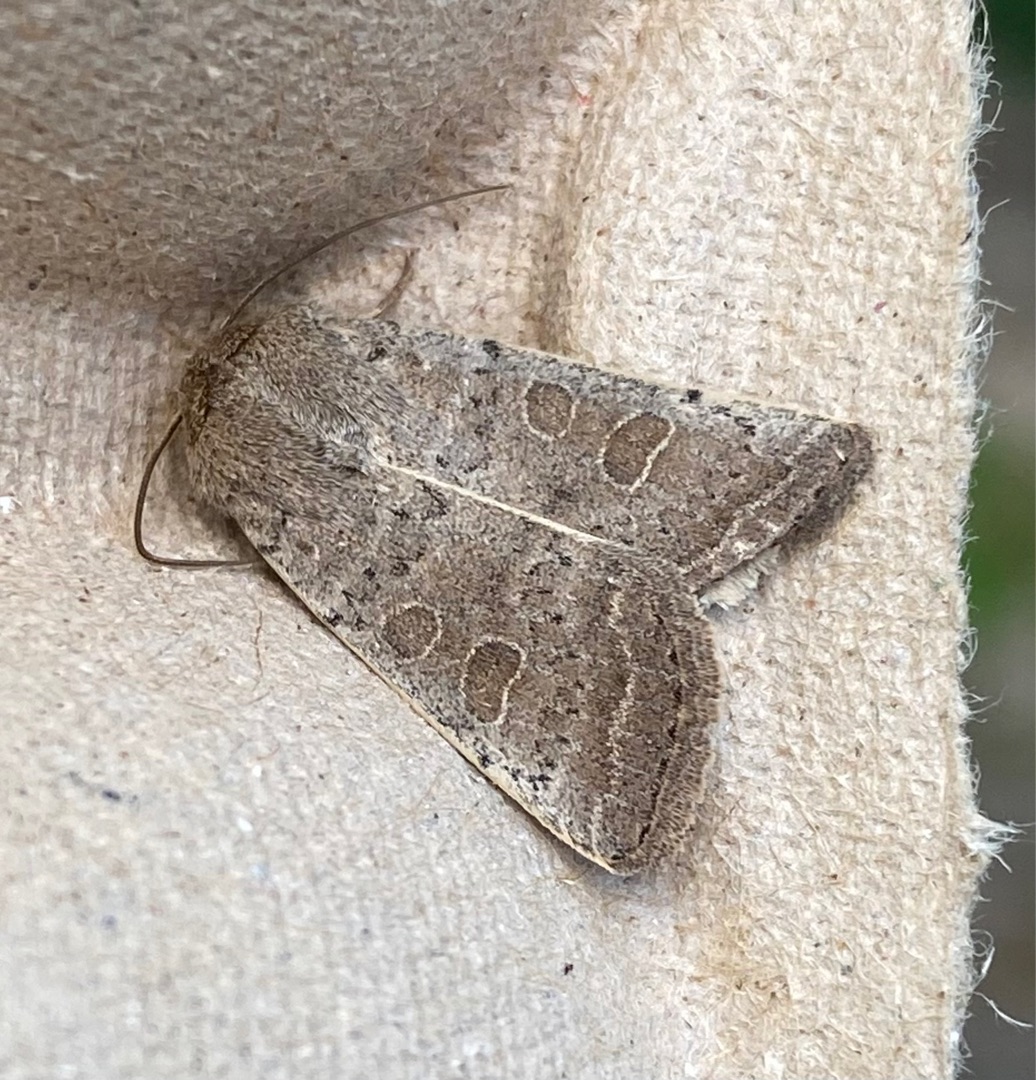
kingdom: Animalia
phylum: Arthropoda
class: Insecta
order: Lepidoptera
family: Noctuidae
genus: Hoplodrina
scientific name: Hoplodrina ambigua
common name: Tvivlsom mus
